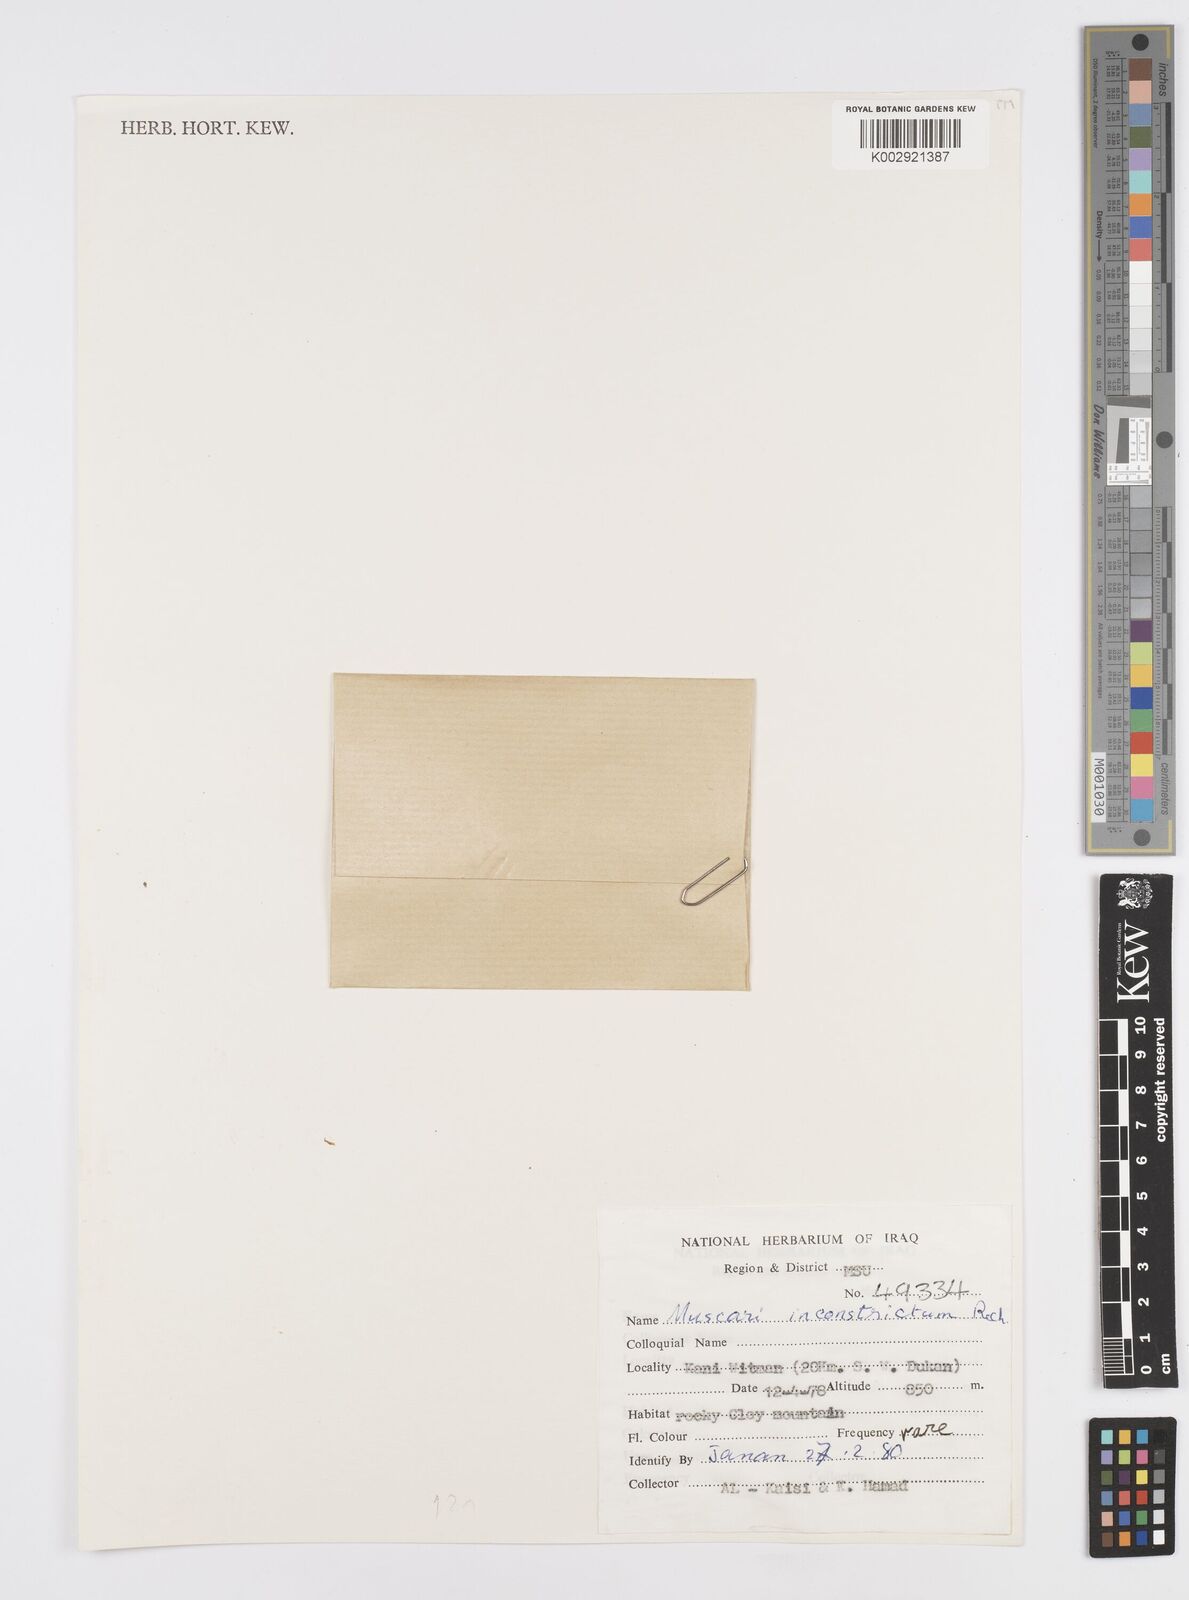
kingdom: Plantae
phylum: Tracheophyta
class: Liliopsida
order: Asparagales
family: Asparagaceae
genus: Muscari
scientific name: Muscari inconstrictum
